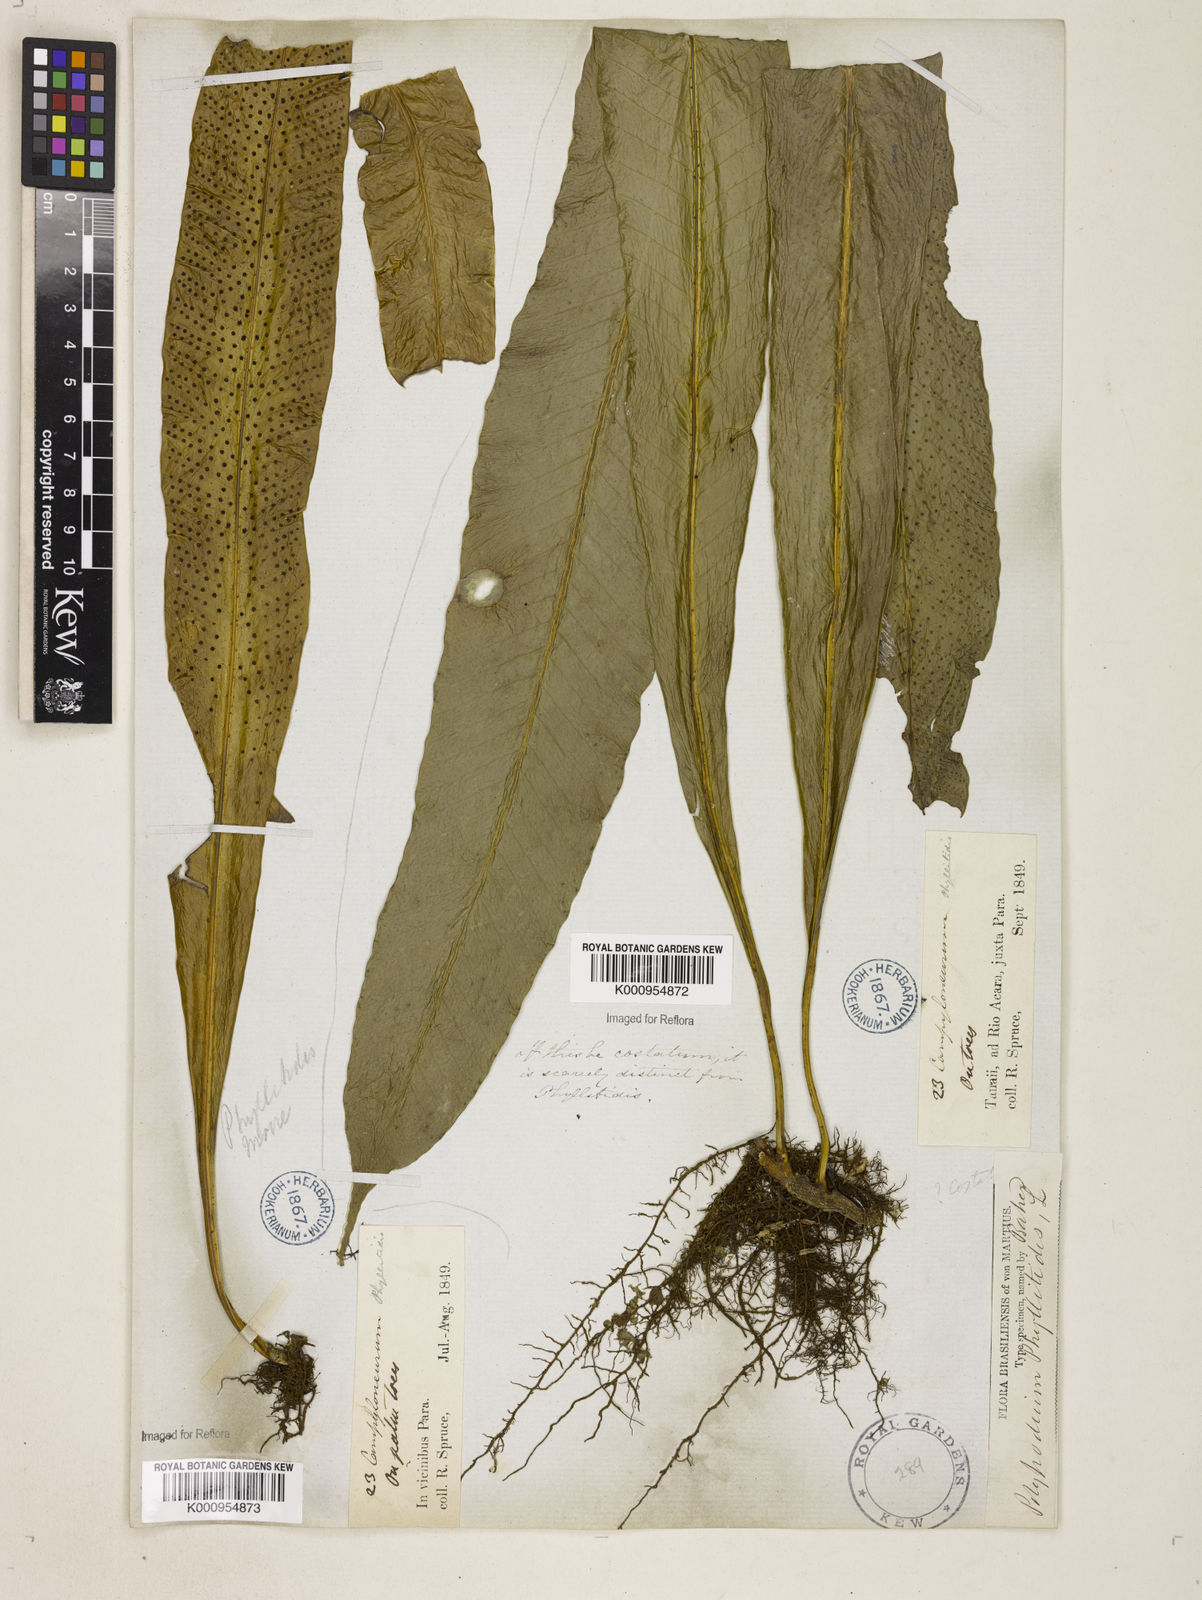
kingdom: Plantae
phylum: Tracheophyta
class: Polypodiopsida
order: Polypodiales
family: Polypodiaceae
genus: Campyloneurum
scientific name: Campyloneurum phyllitidis
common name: Cow-tongue fern
